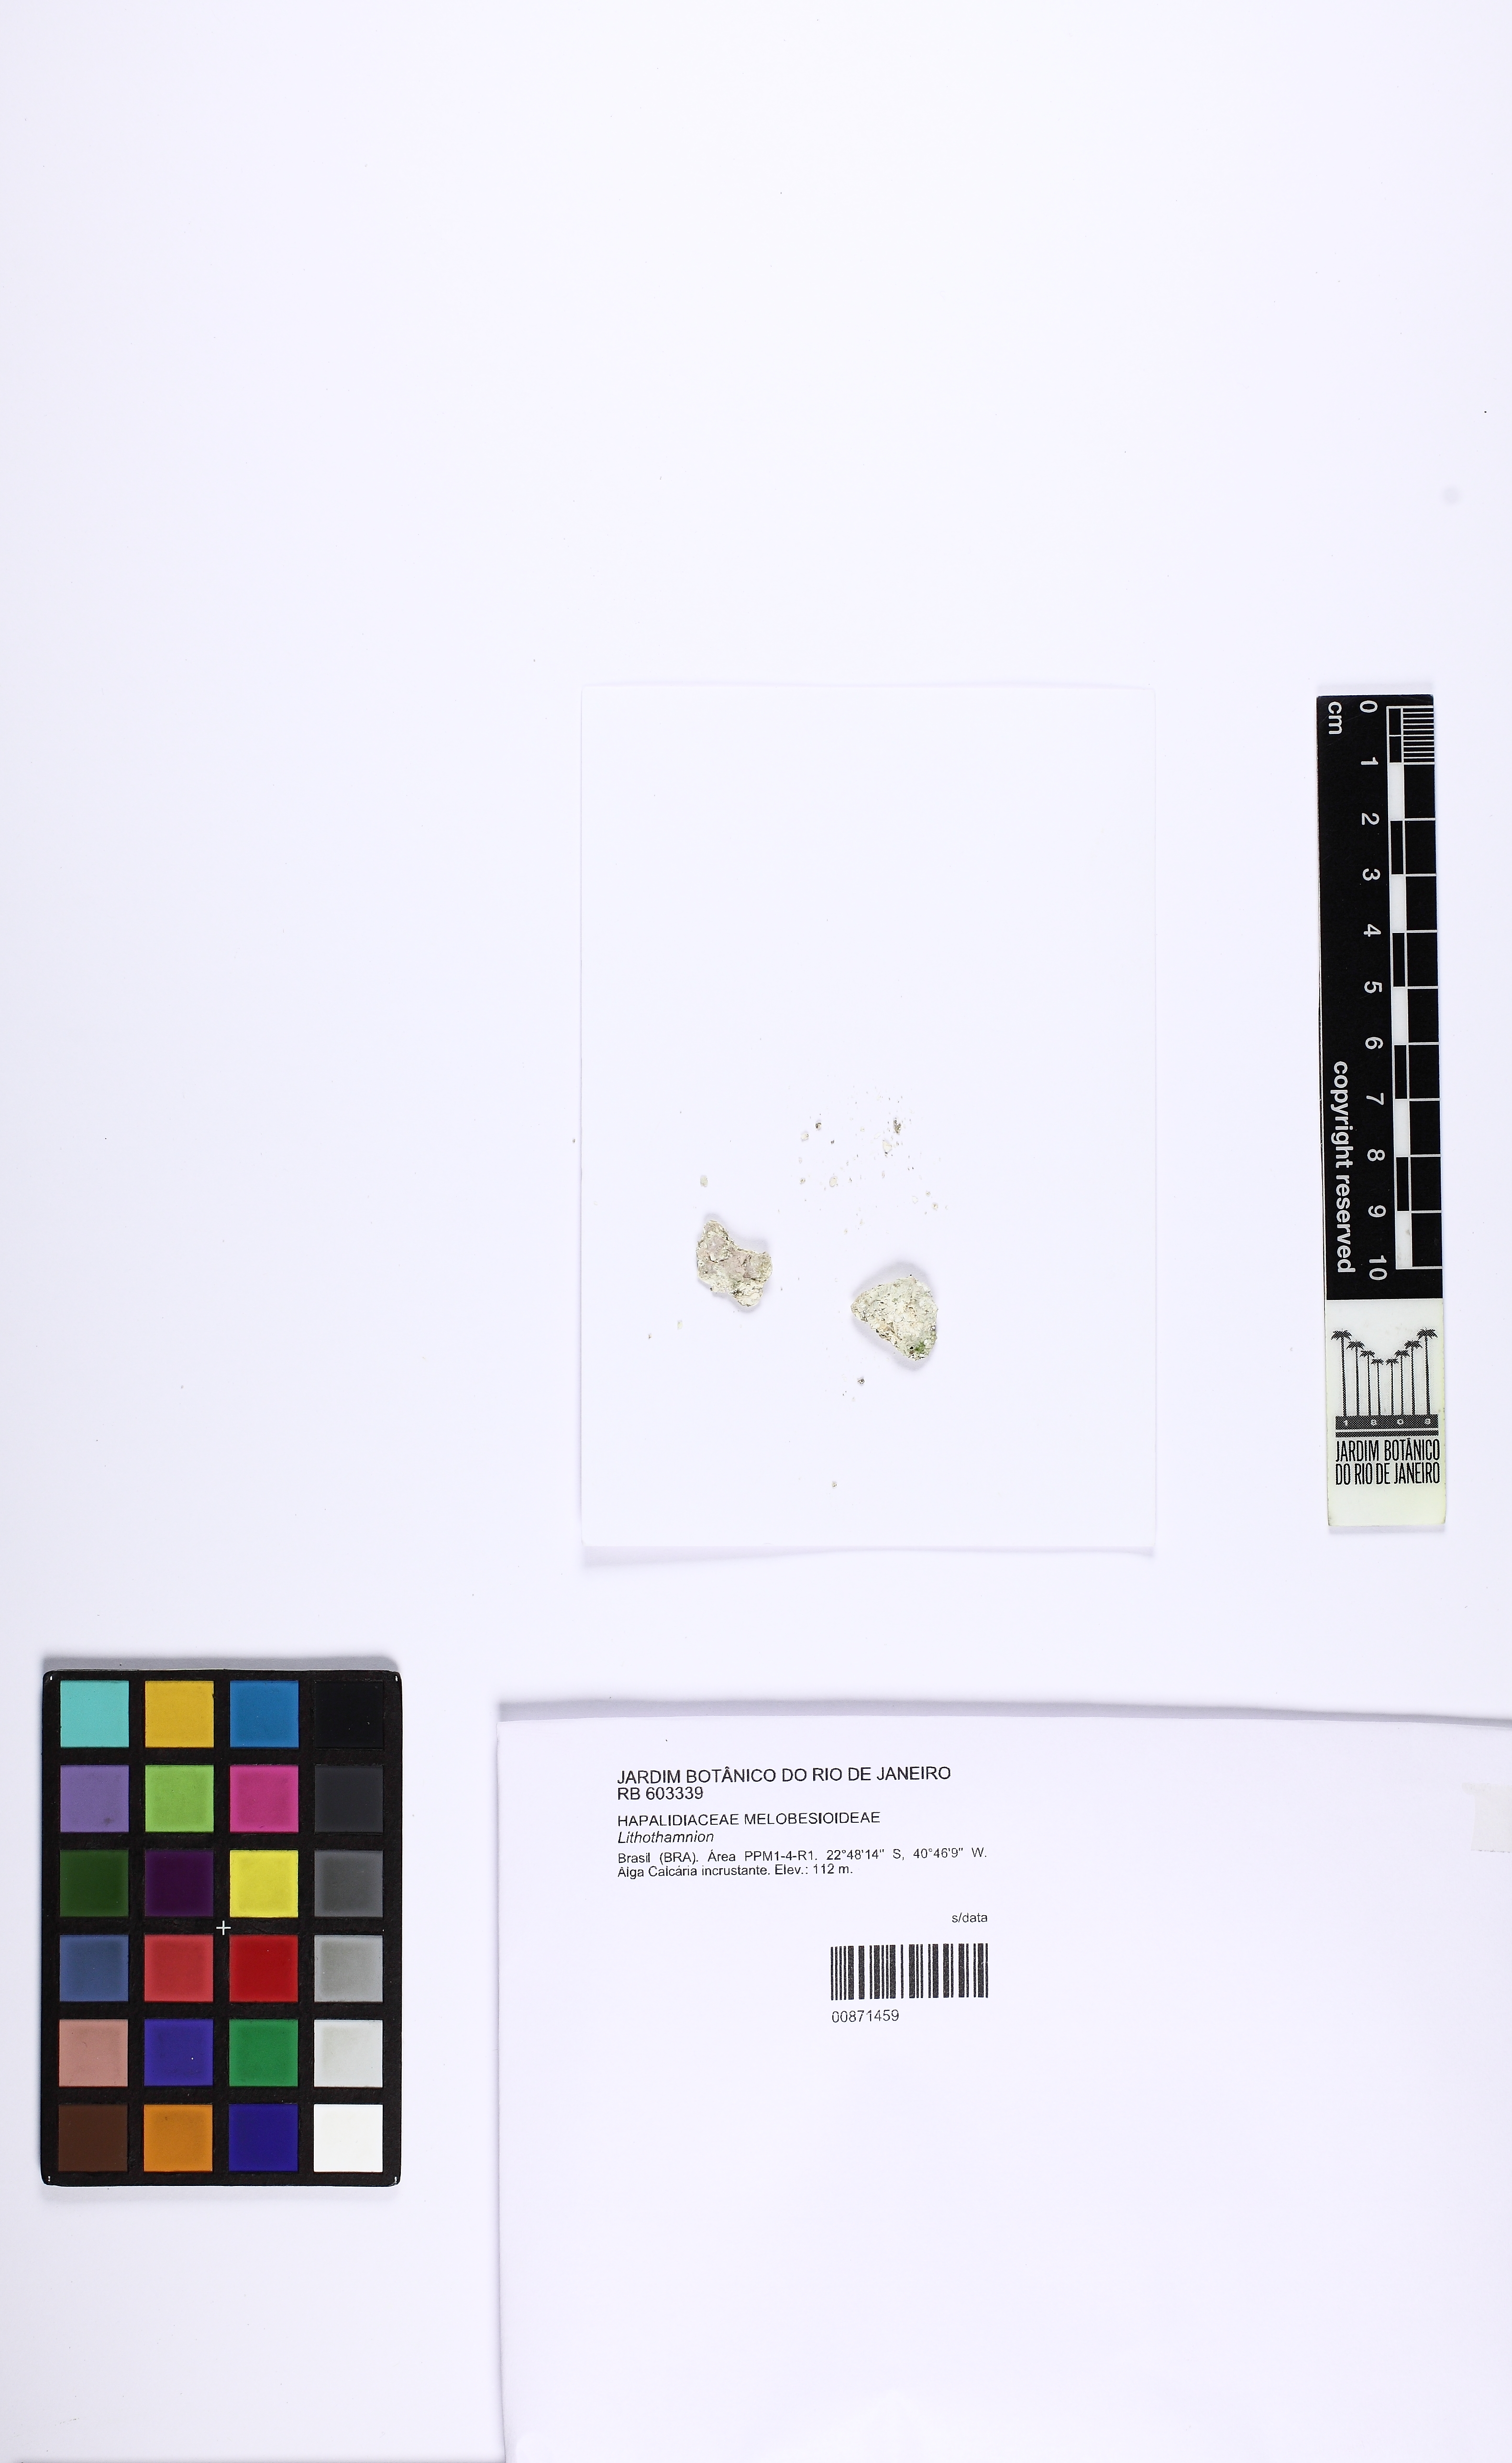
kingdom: Plantae
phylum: Rhodophyta
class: Florideophyceae
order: Corallinales
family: Hapalidiaceae
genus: Lithothamnion
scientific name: Lithothamnion
